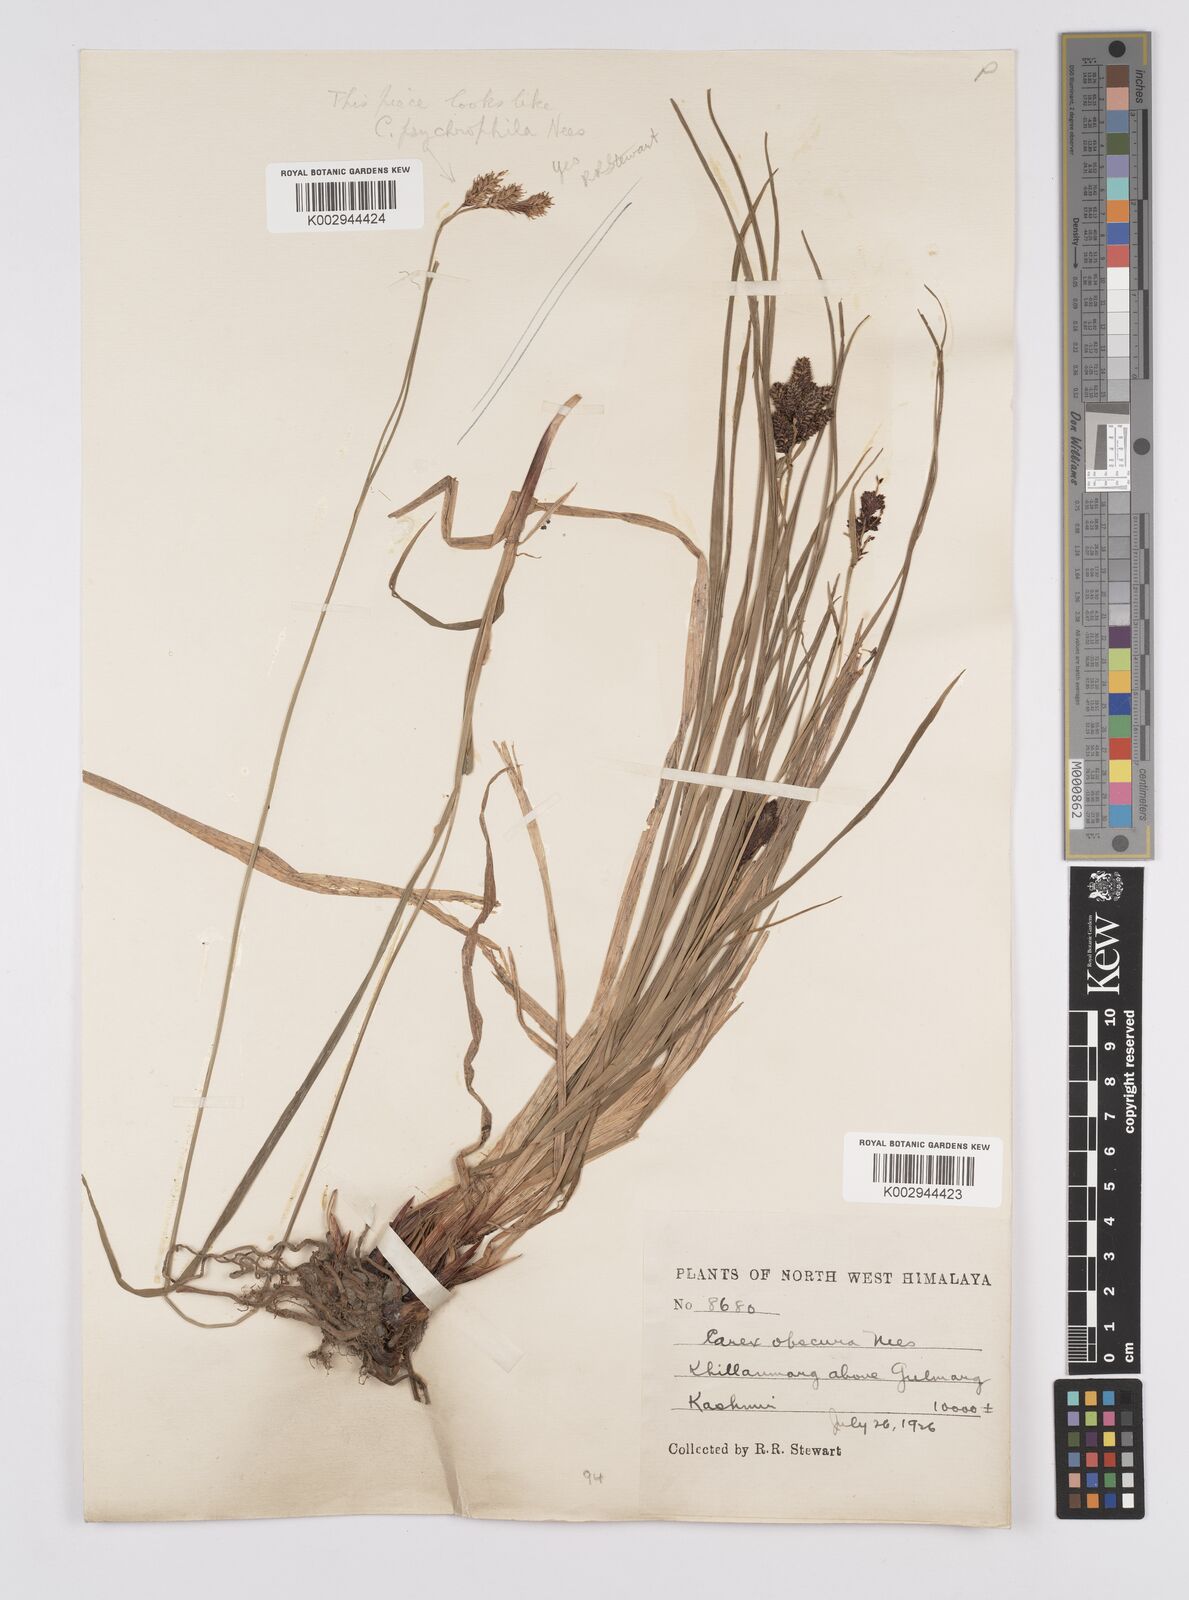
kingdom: Plantae
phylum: Tracheophyta
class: Liliopsida
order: Poales
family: Cyperaceae
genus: Carex
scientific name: Carex obscura
